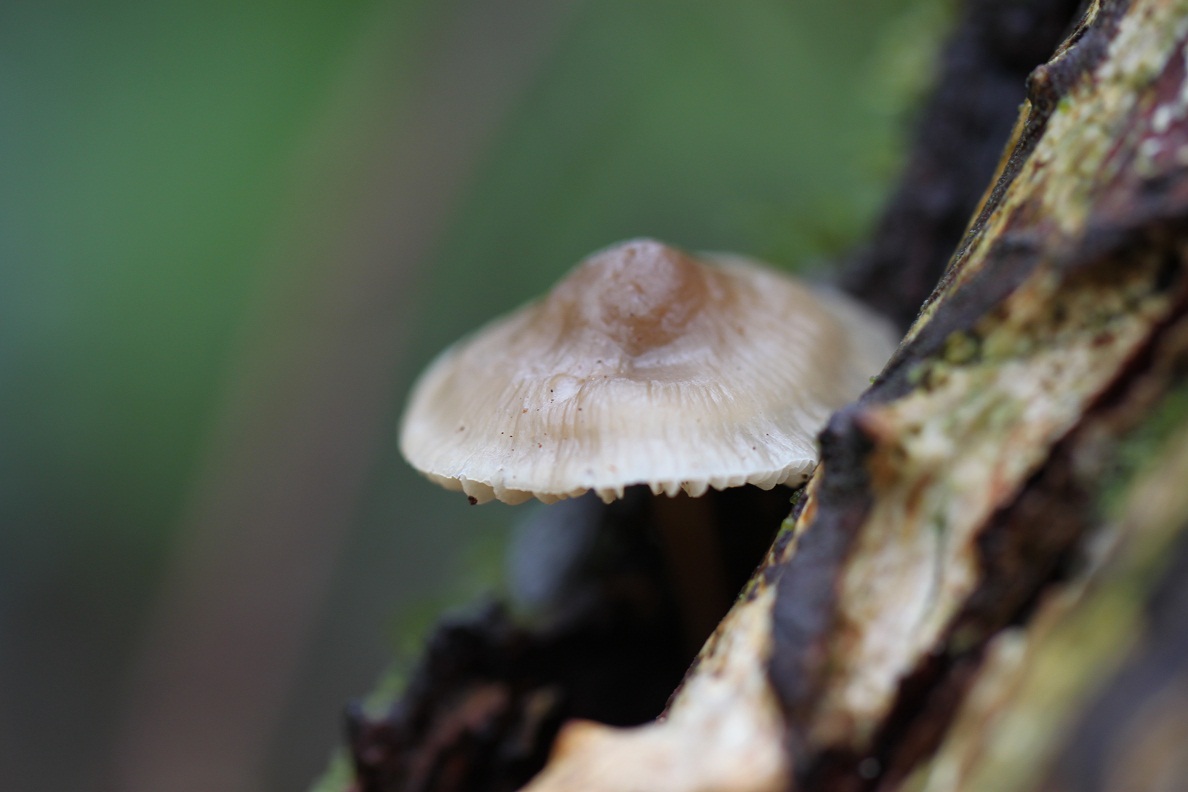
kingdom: Fungi
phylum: Basidiomycota
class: Agaricomycetes
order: Agaricales
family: Mycenaceae
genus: Mycena
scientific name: Mycena galericulata
